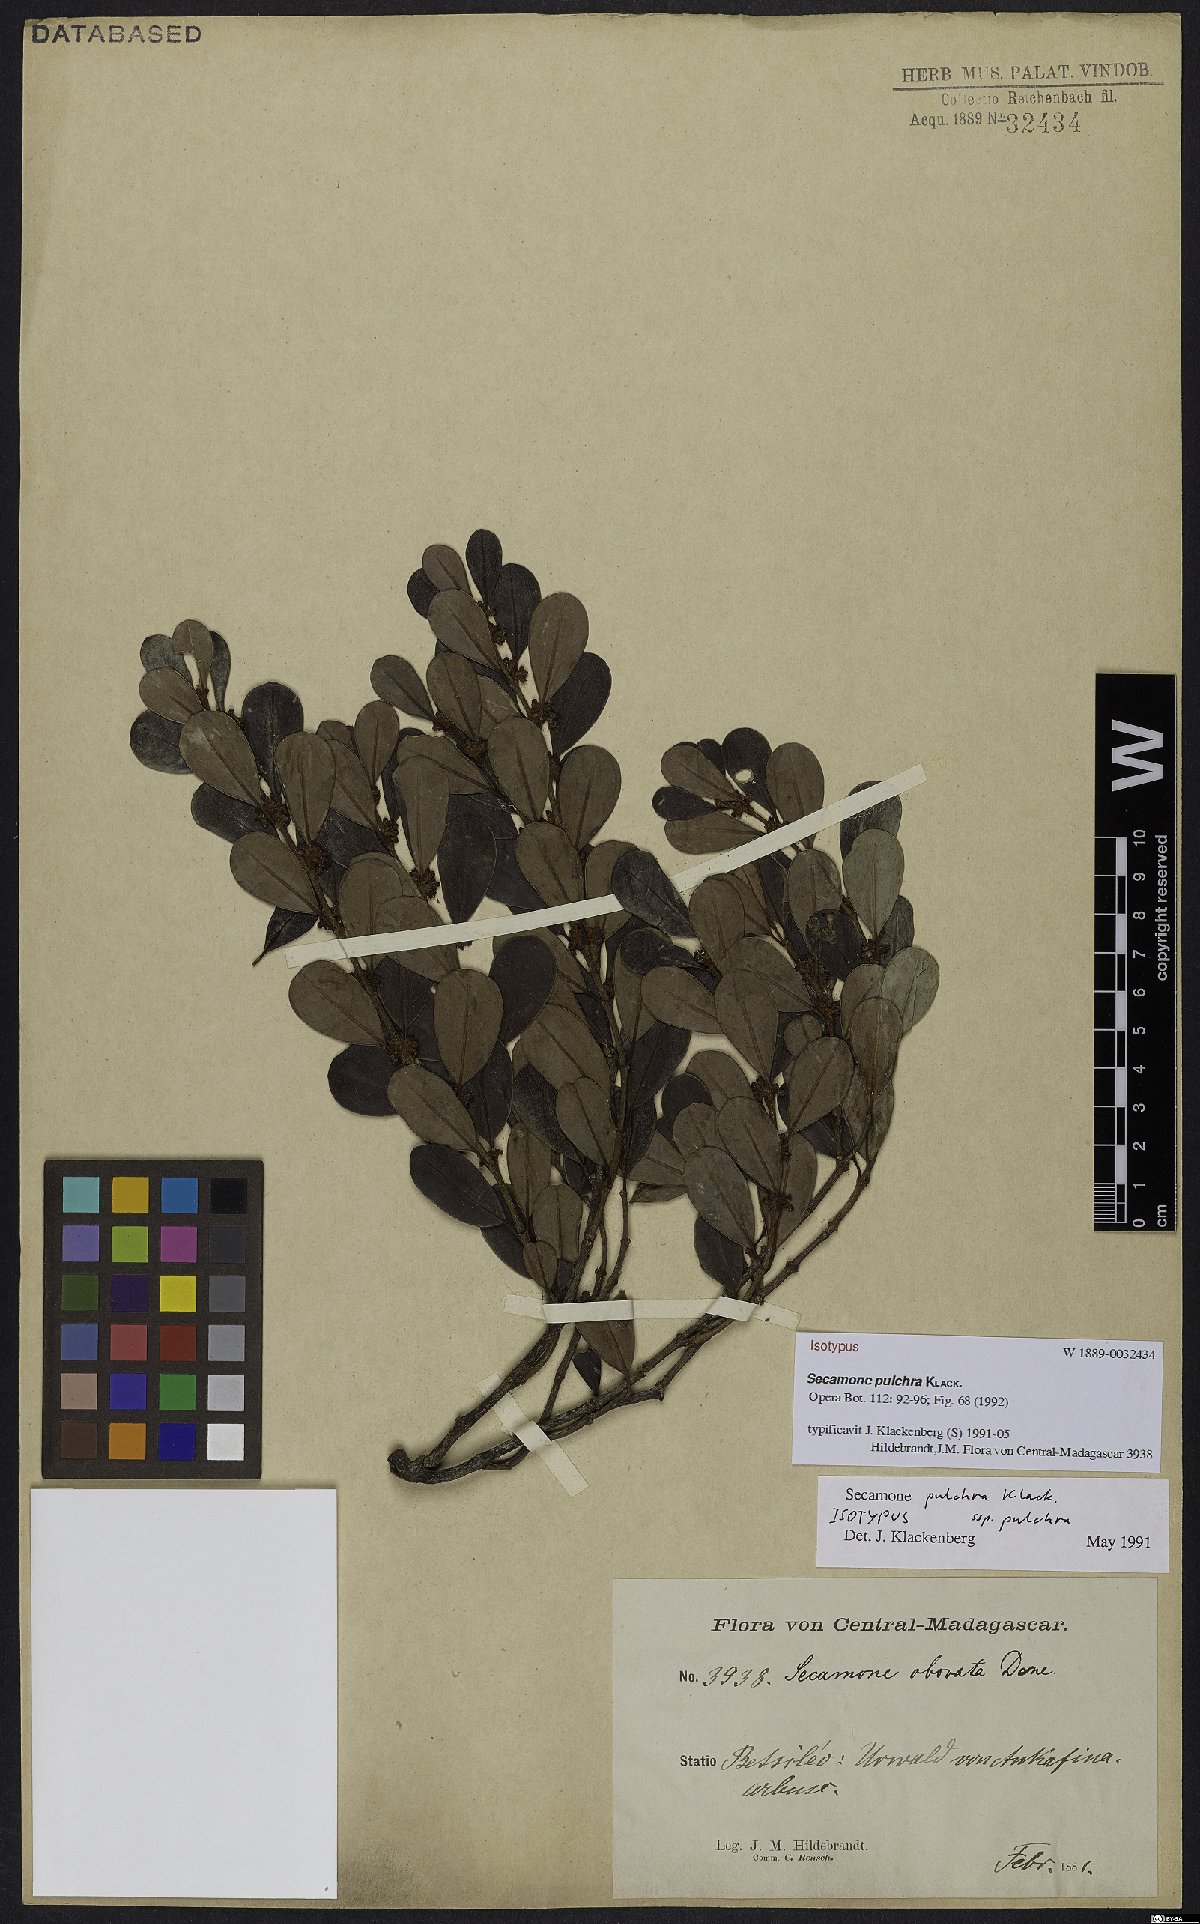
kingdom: Plantae
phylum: Tracheophyta
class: Magnoliopsida
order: Gentianales
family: Apocynaceae
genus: Secamone
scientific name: Secamone pulchra
